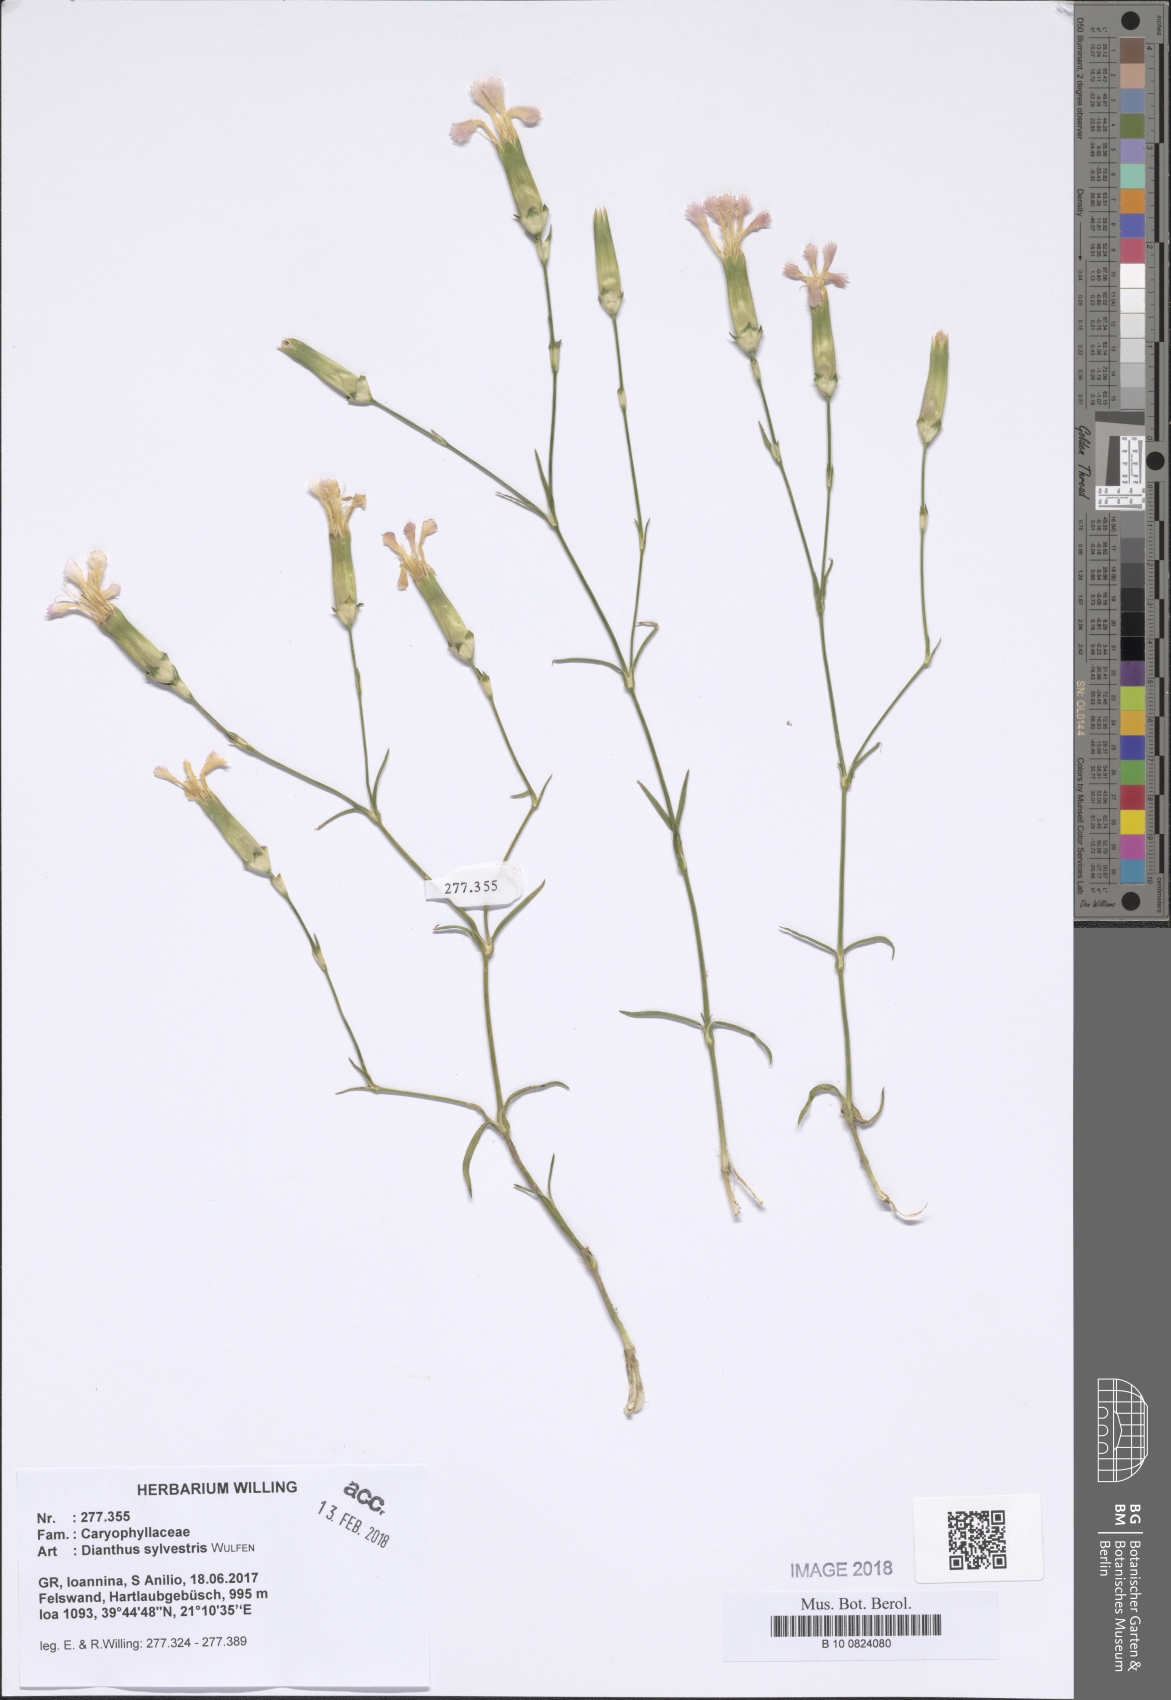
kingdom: Plantae
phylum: Tracheophyta
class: Magnoliopsida
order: Caryophyllales
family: Caryophyllaceae
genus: Dianthus
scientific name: Dianthus sylvestris
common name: Wood pink
